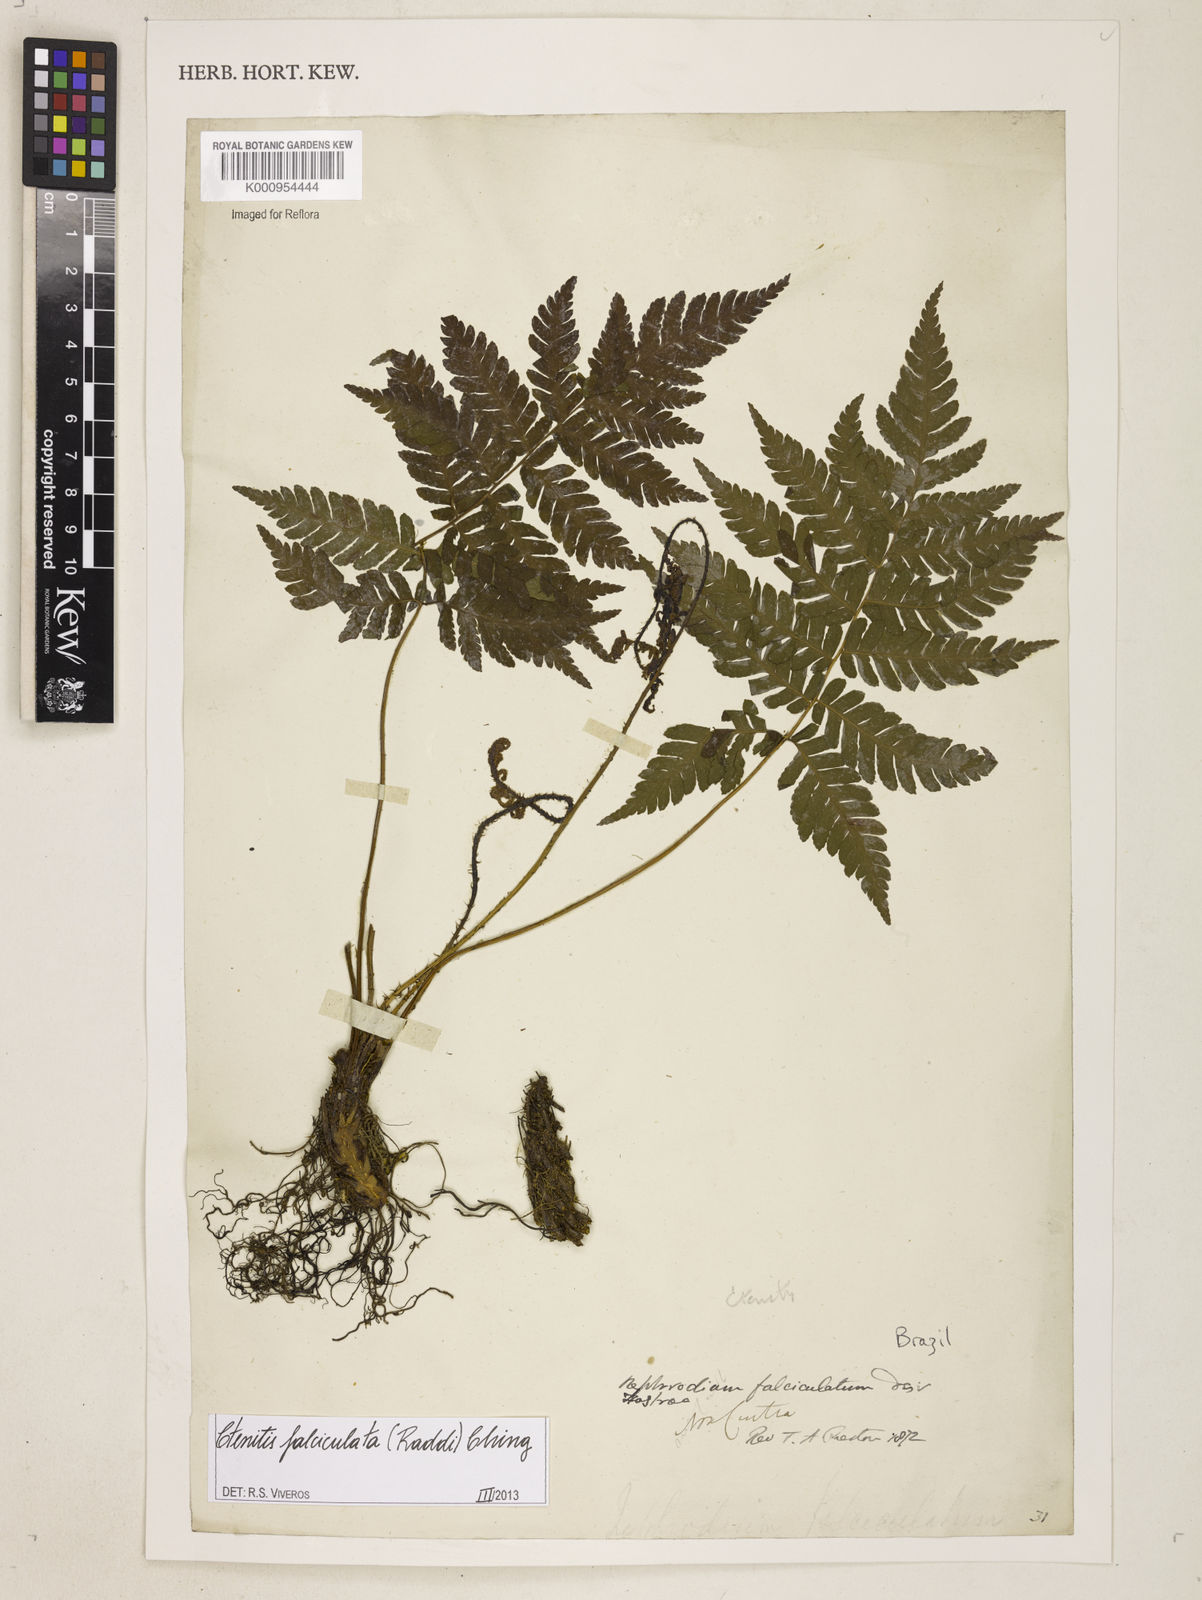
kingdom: Plantae
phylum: Tracheophyta
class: Polypodiopsida
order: Polypodiales
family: Dryopteridaceae
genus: Ctenitis
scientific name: Ctenitis falciculata
